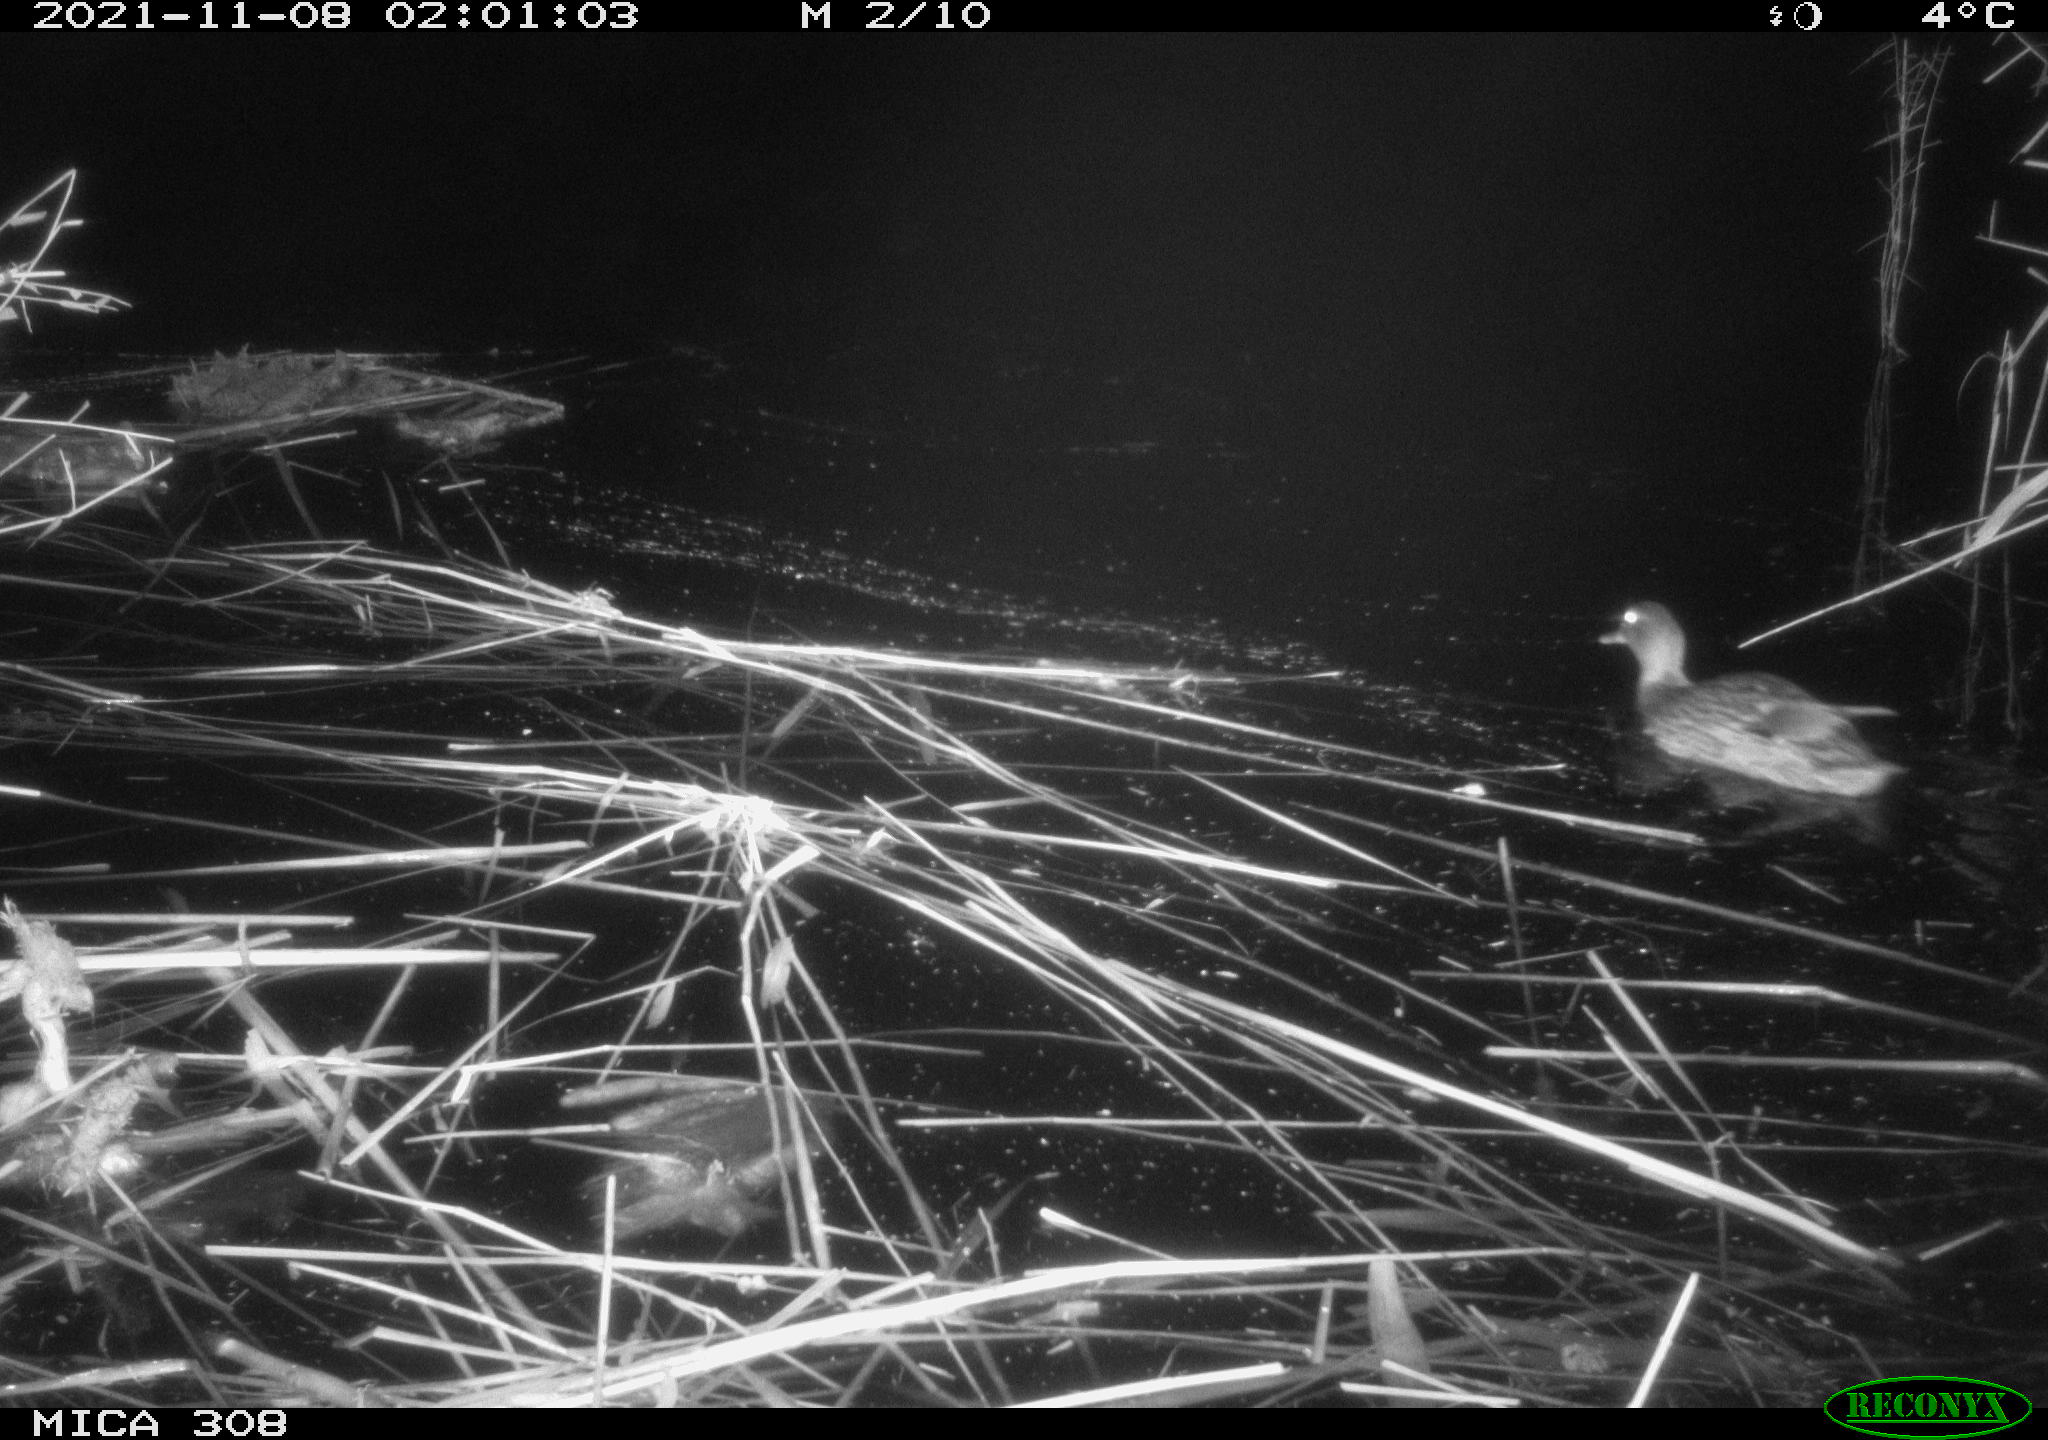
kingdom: Animalia
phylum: Chordata
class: Aves
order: Anseriformes
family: Anatidae
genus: Anas
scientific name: Anas platyrhynchos
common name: Mallard
